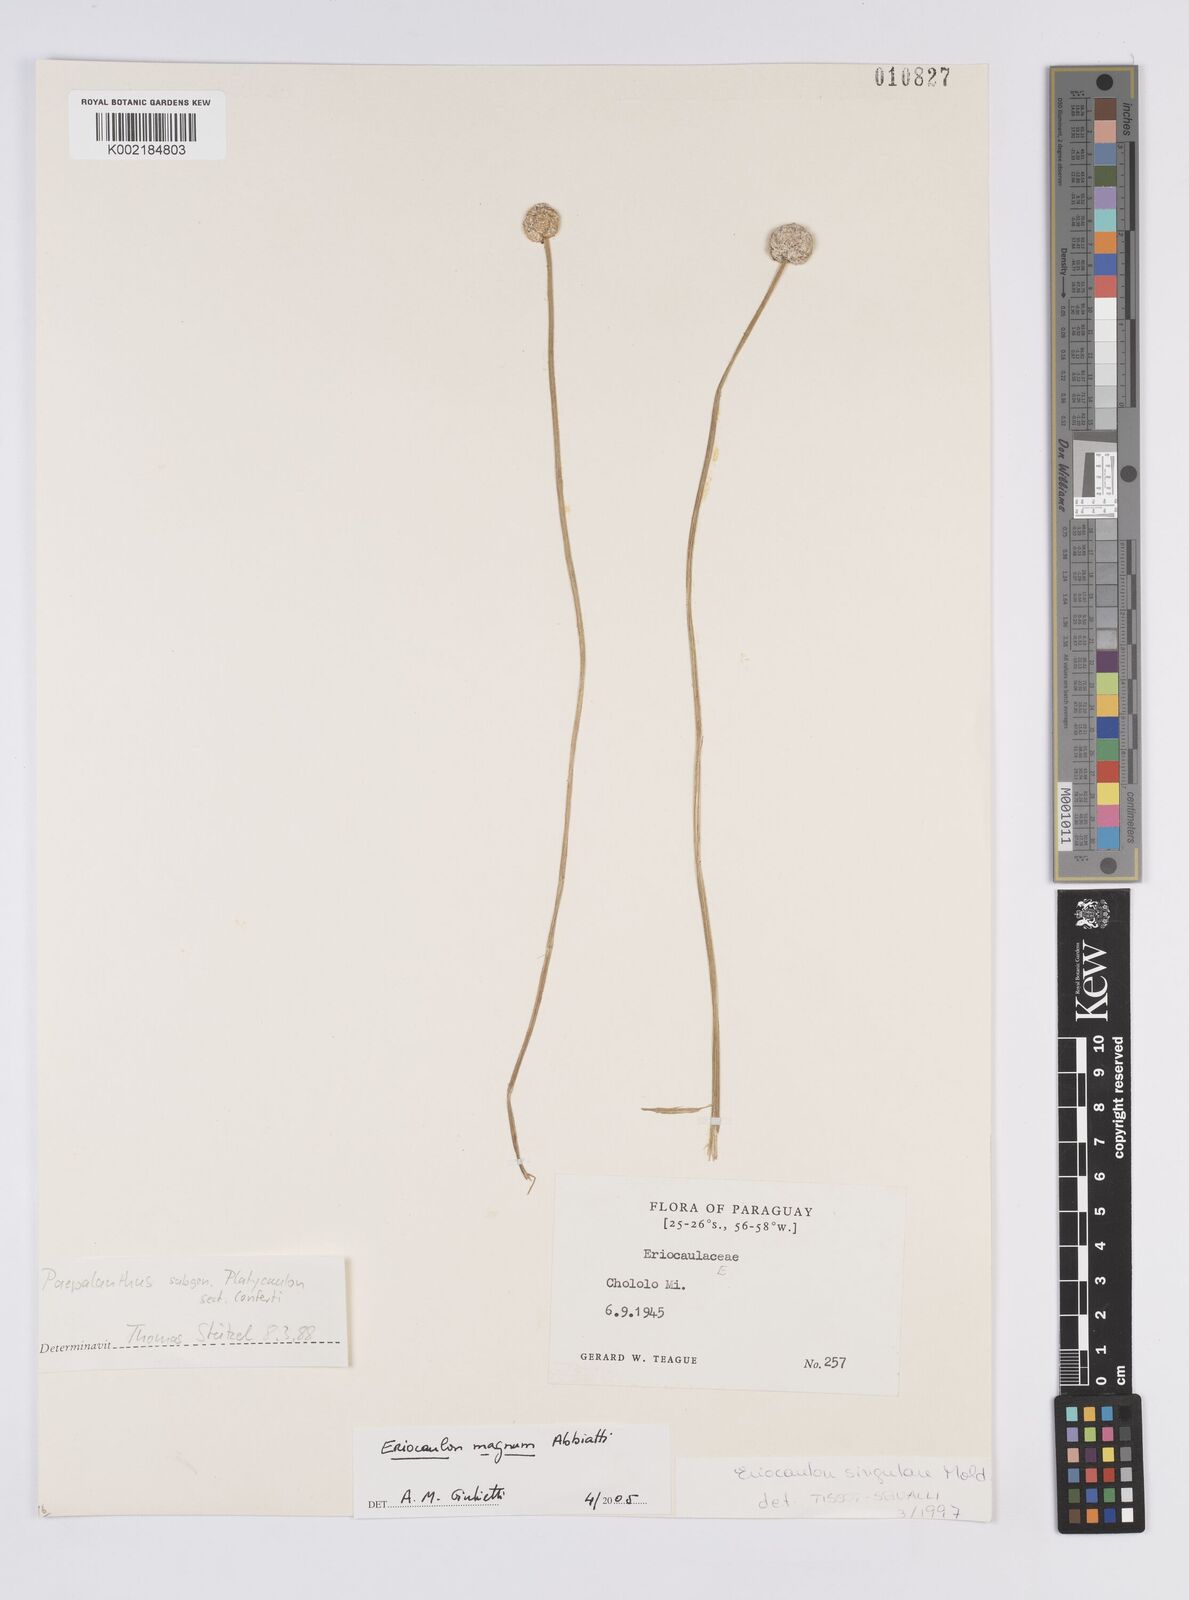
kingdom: Plantae
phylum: Tracheophyta
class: Liliopsida
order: Poales
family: Eriocaulaceae
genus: Eriocaulon
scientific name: Eriocaulon magnum
